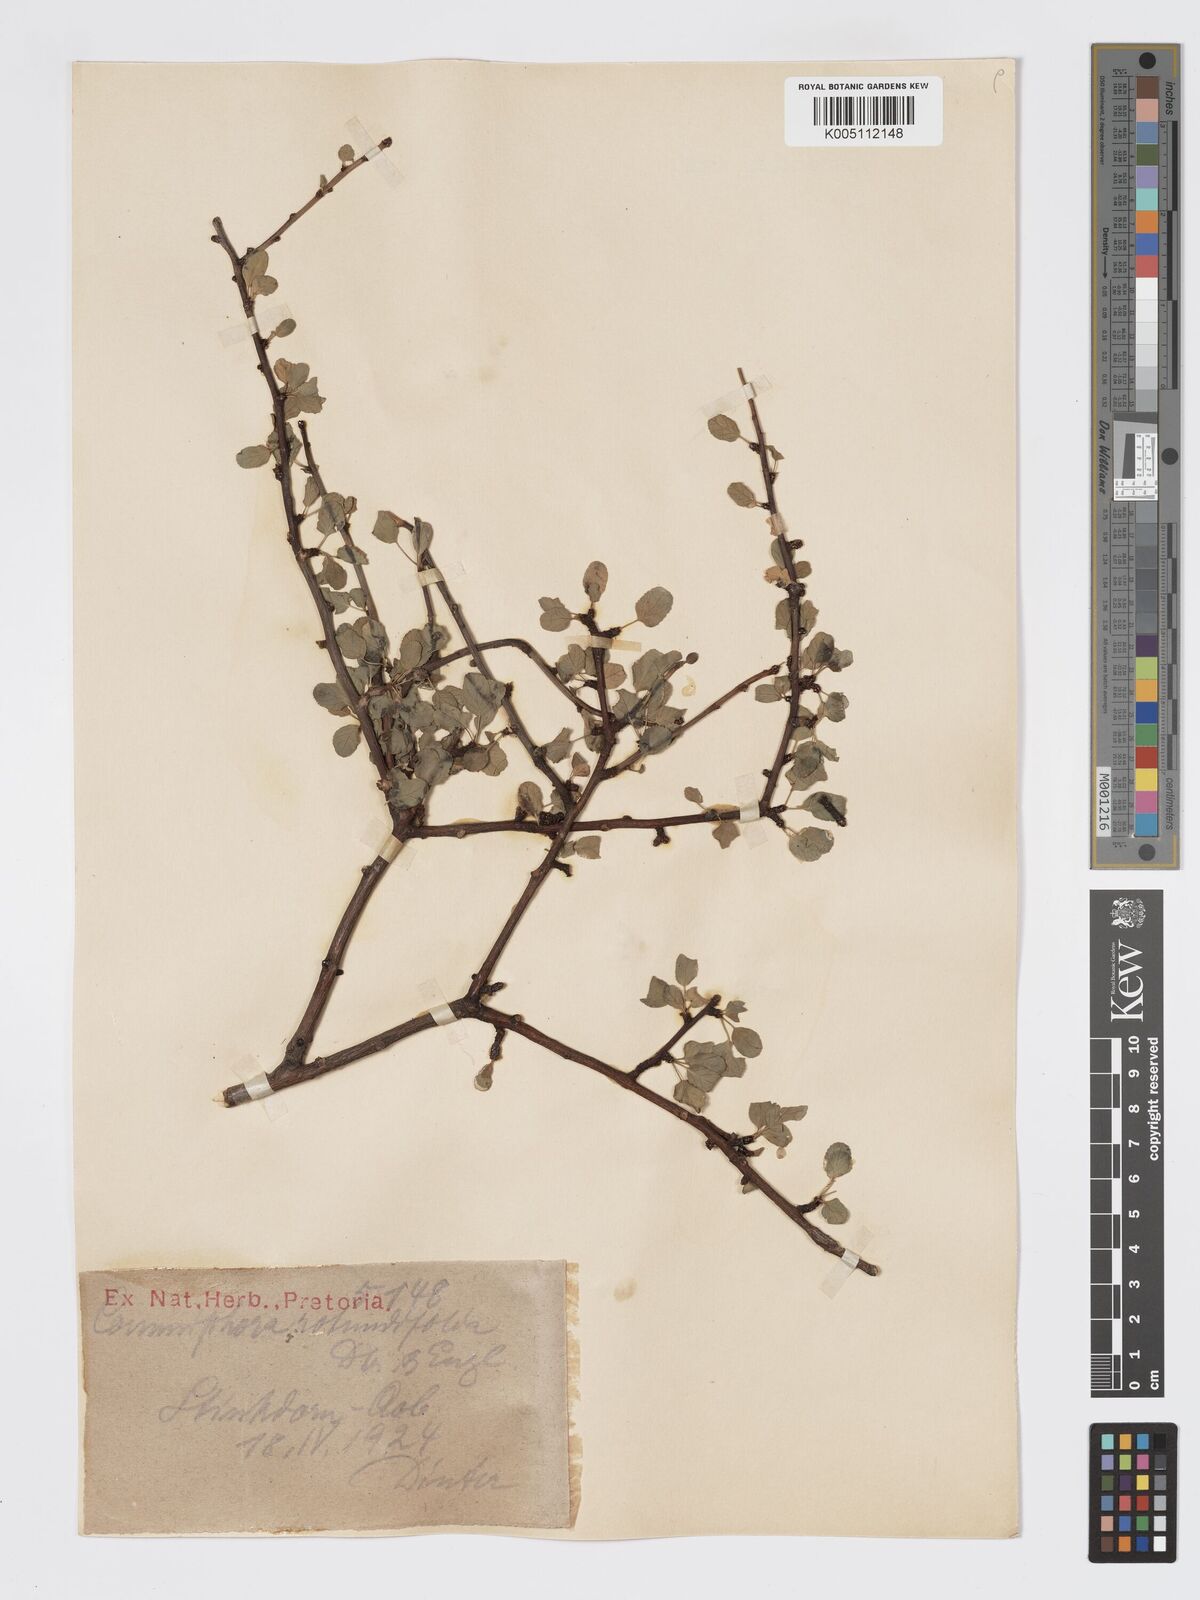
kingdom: Plantae
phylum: Tracheophyta
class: Magnoliopsida
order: Sapindales
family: Burseraceae
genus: Commiphora
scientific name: Commiphora namaensis
